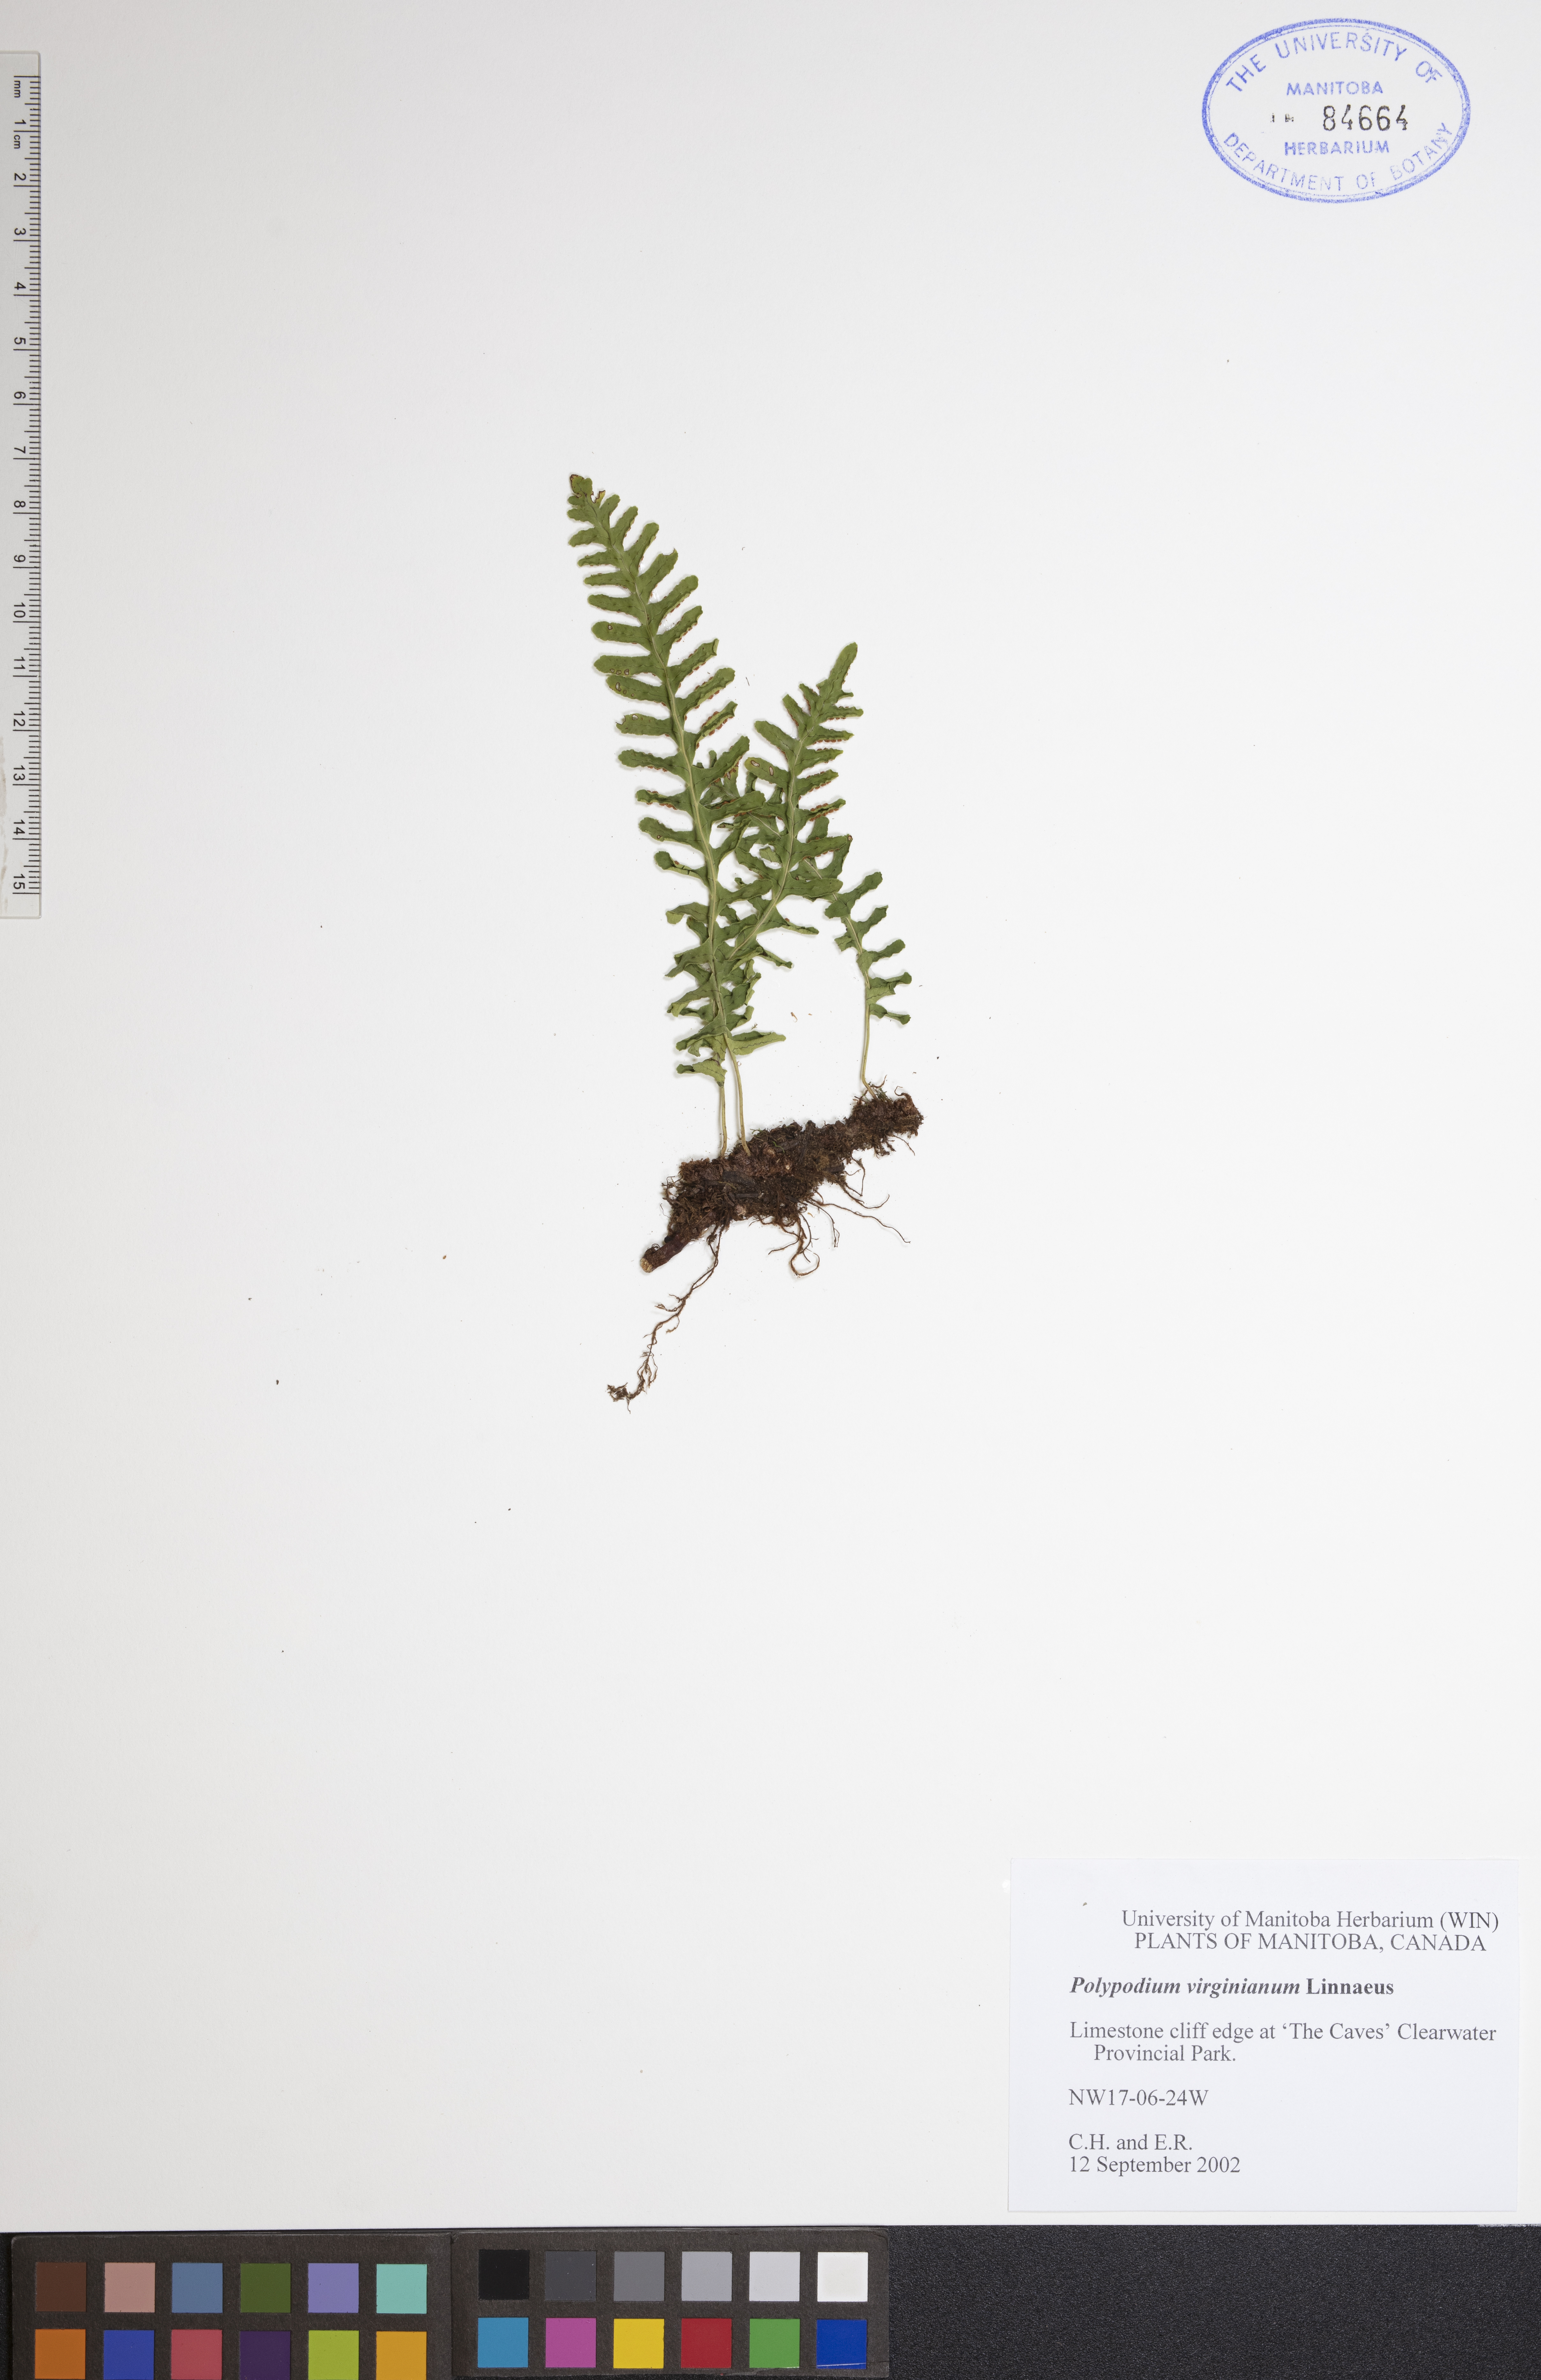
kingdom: Plantae
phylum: Tracheophyta
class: Polypodiopsida
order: Polypodiales
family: Polypodiaceae
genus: Polypodium
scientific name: Polypodium virginianum
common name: American wall fern
